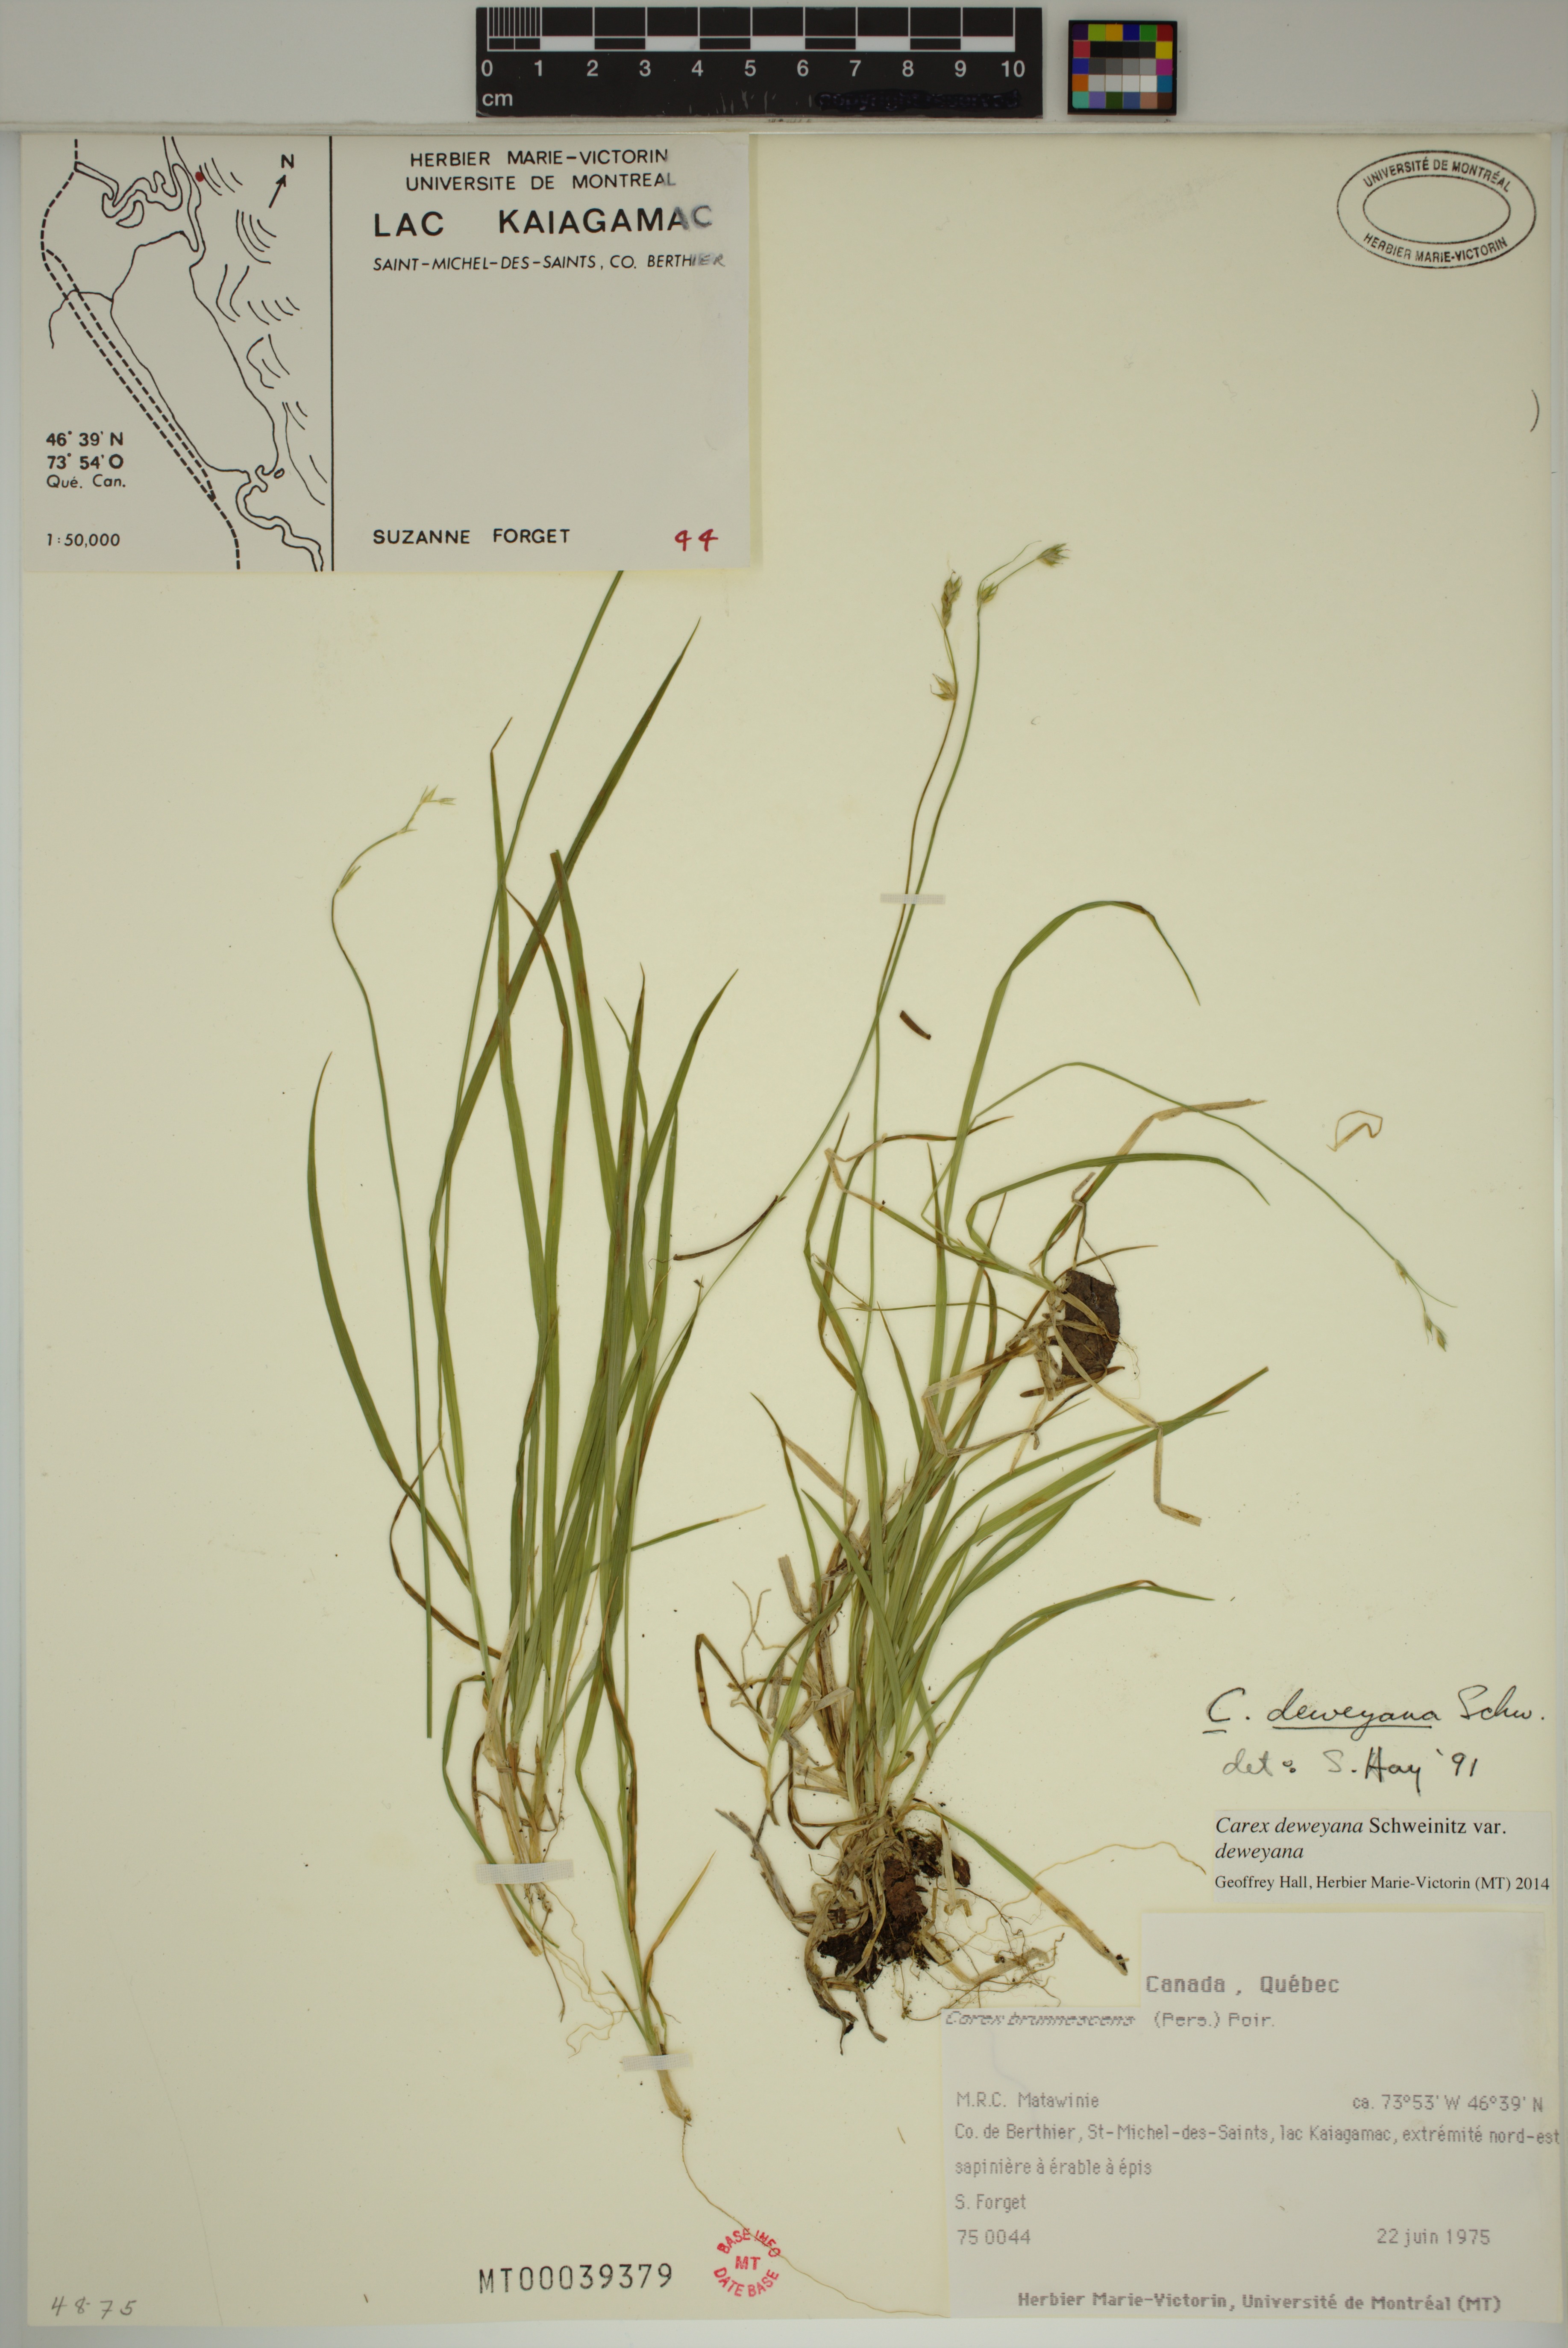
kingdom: Plantae
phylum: Tracheophyta
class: Liliopsida
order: Poales
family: Cyperaceae
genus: Carex
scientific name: Carex deweyana
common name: Dewey's sedge
